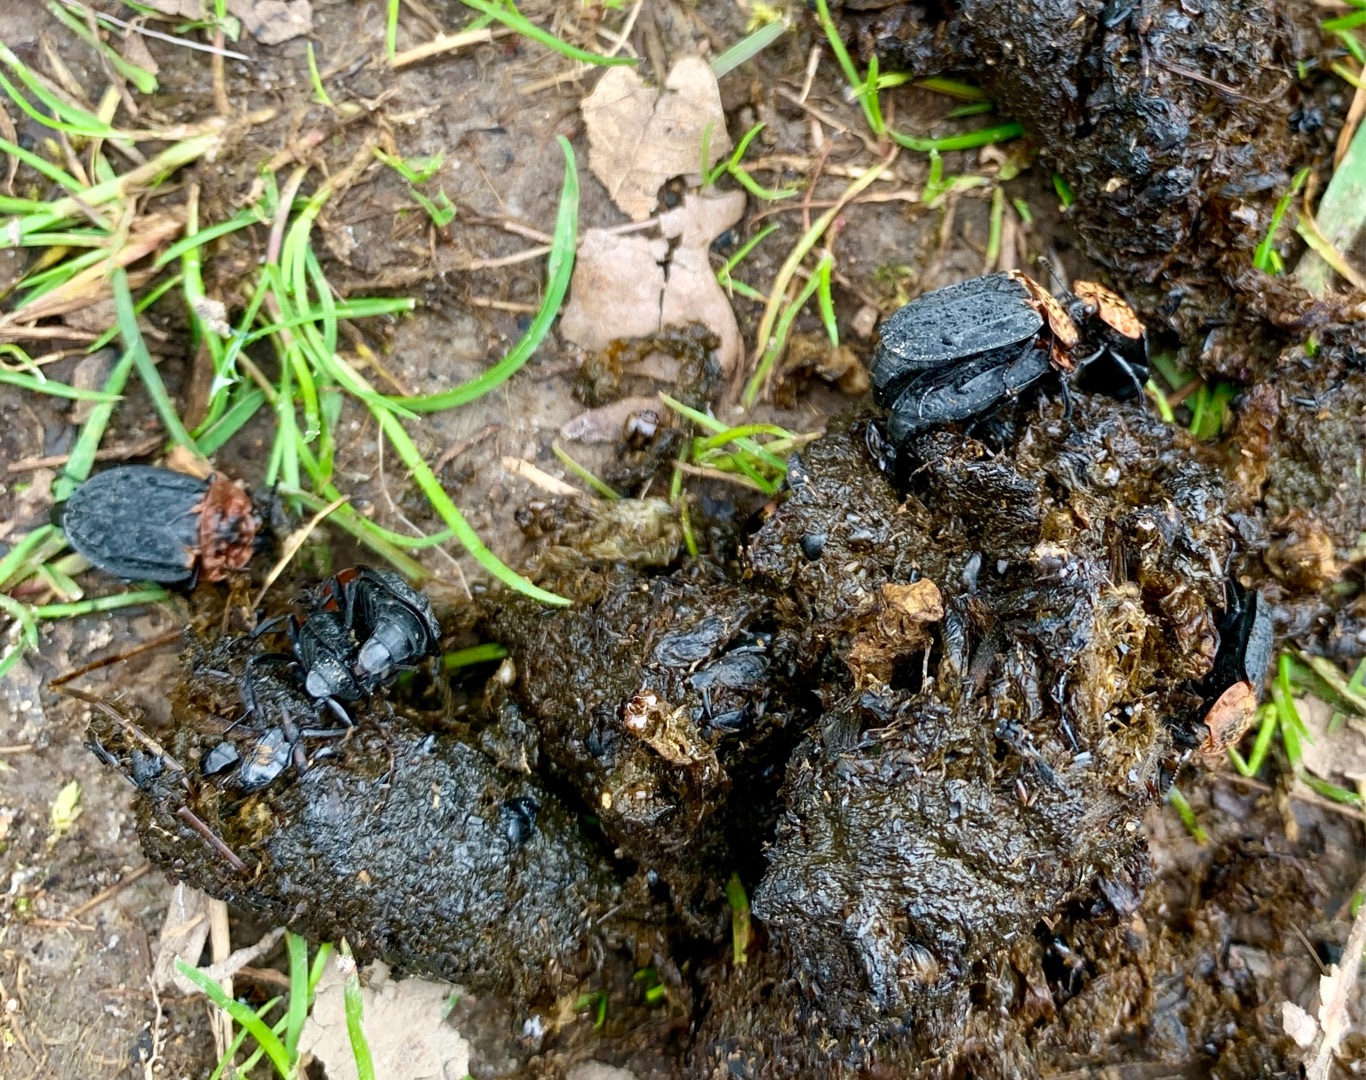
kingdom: Animalia
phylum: Arthropoda
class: Insecta
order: Coleoptera
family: Staphylinidae
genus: Oiceoptoma
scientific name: Oiceoptoma thoracicum
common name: Rødbrystet ådselbille
